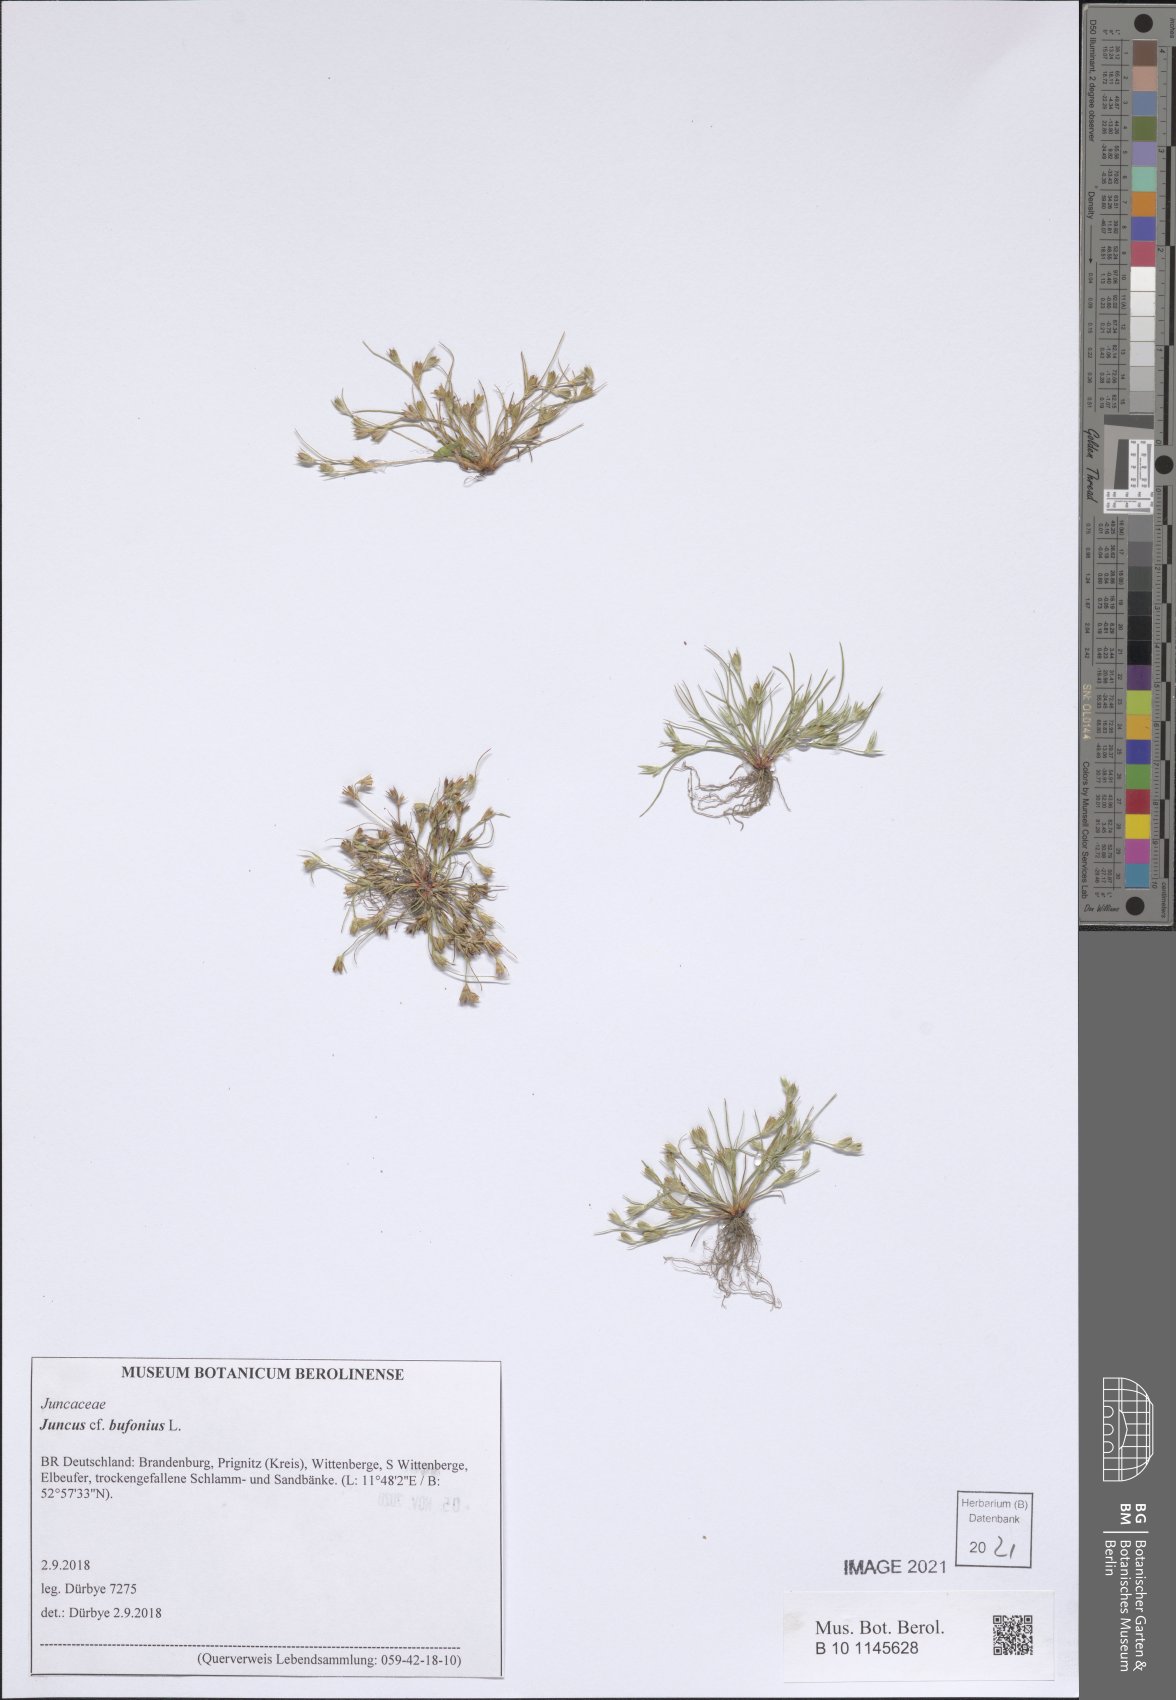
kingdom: Plantae
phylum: Tracheophyta
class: Liliopsida
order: Poales
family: Juncaceae
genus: Juncus
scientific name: Juncus bufonius
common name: Toad rush
